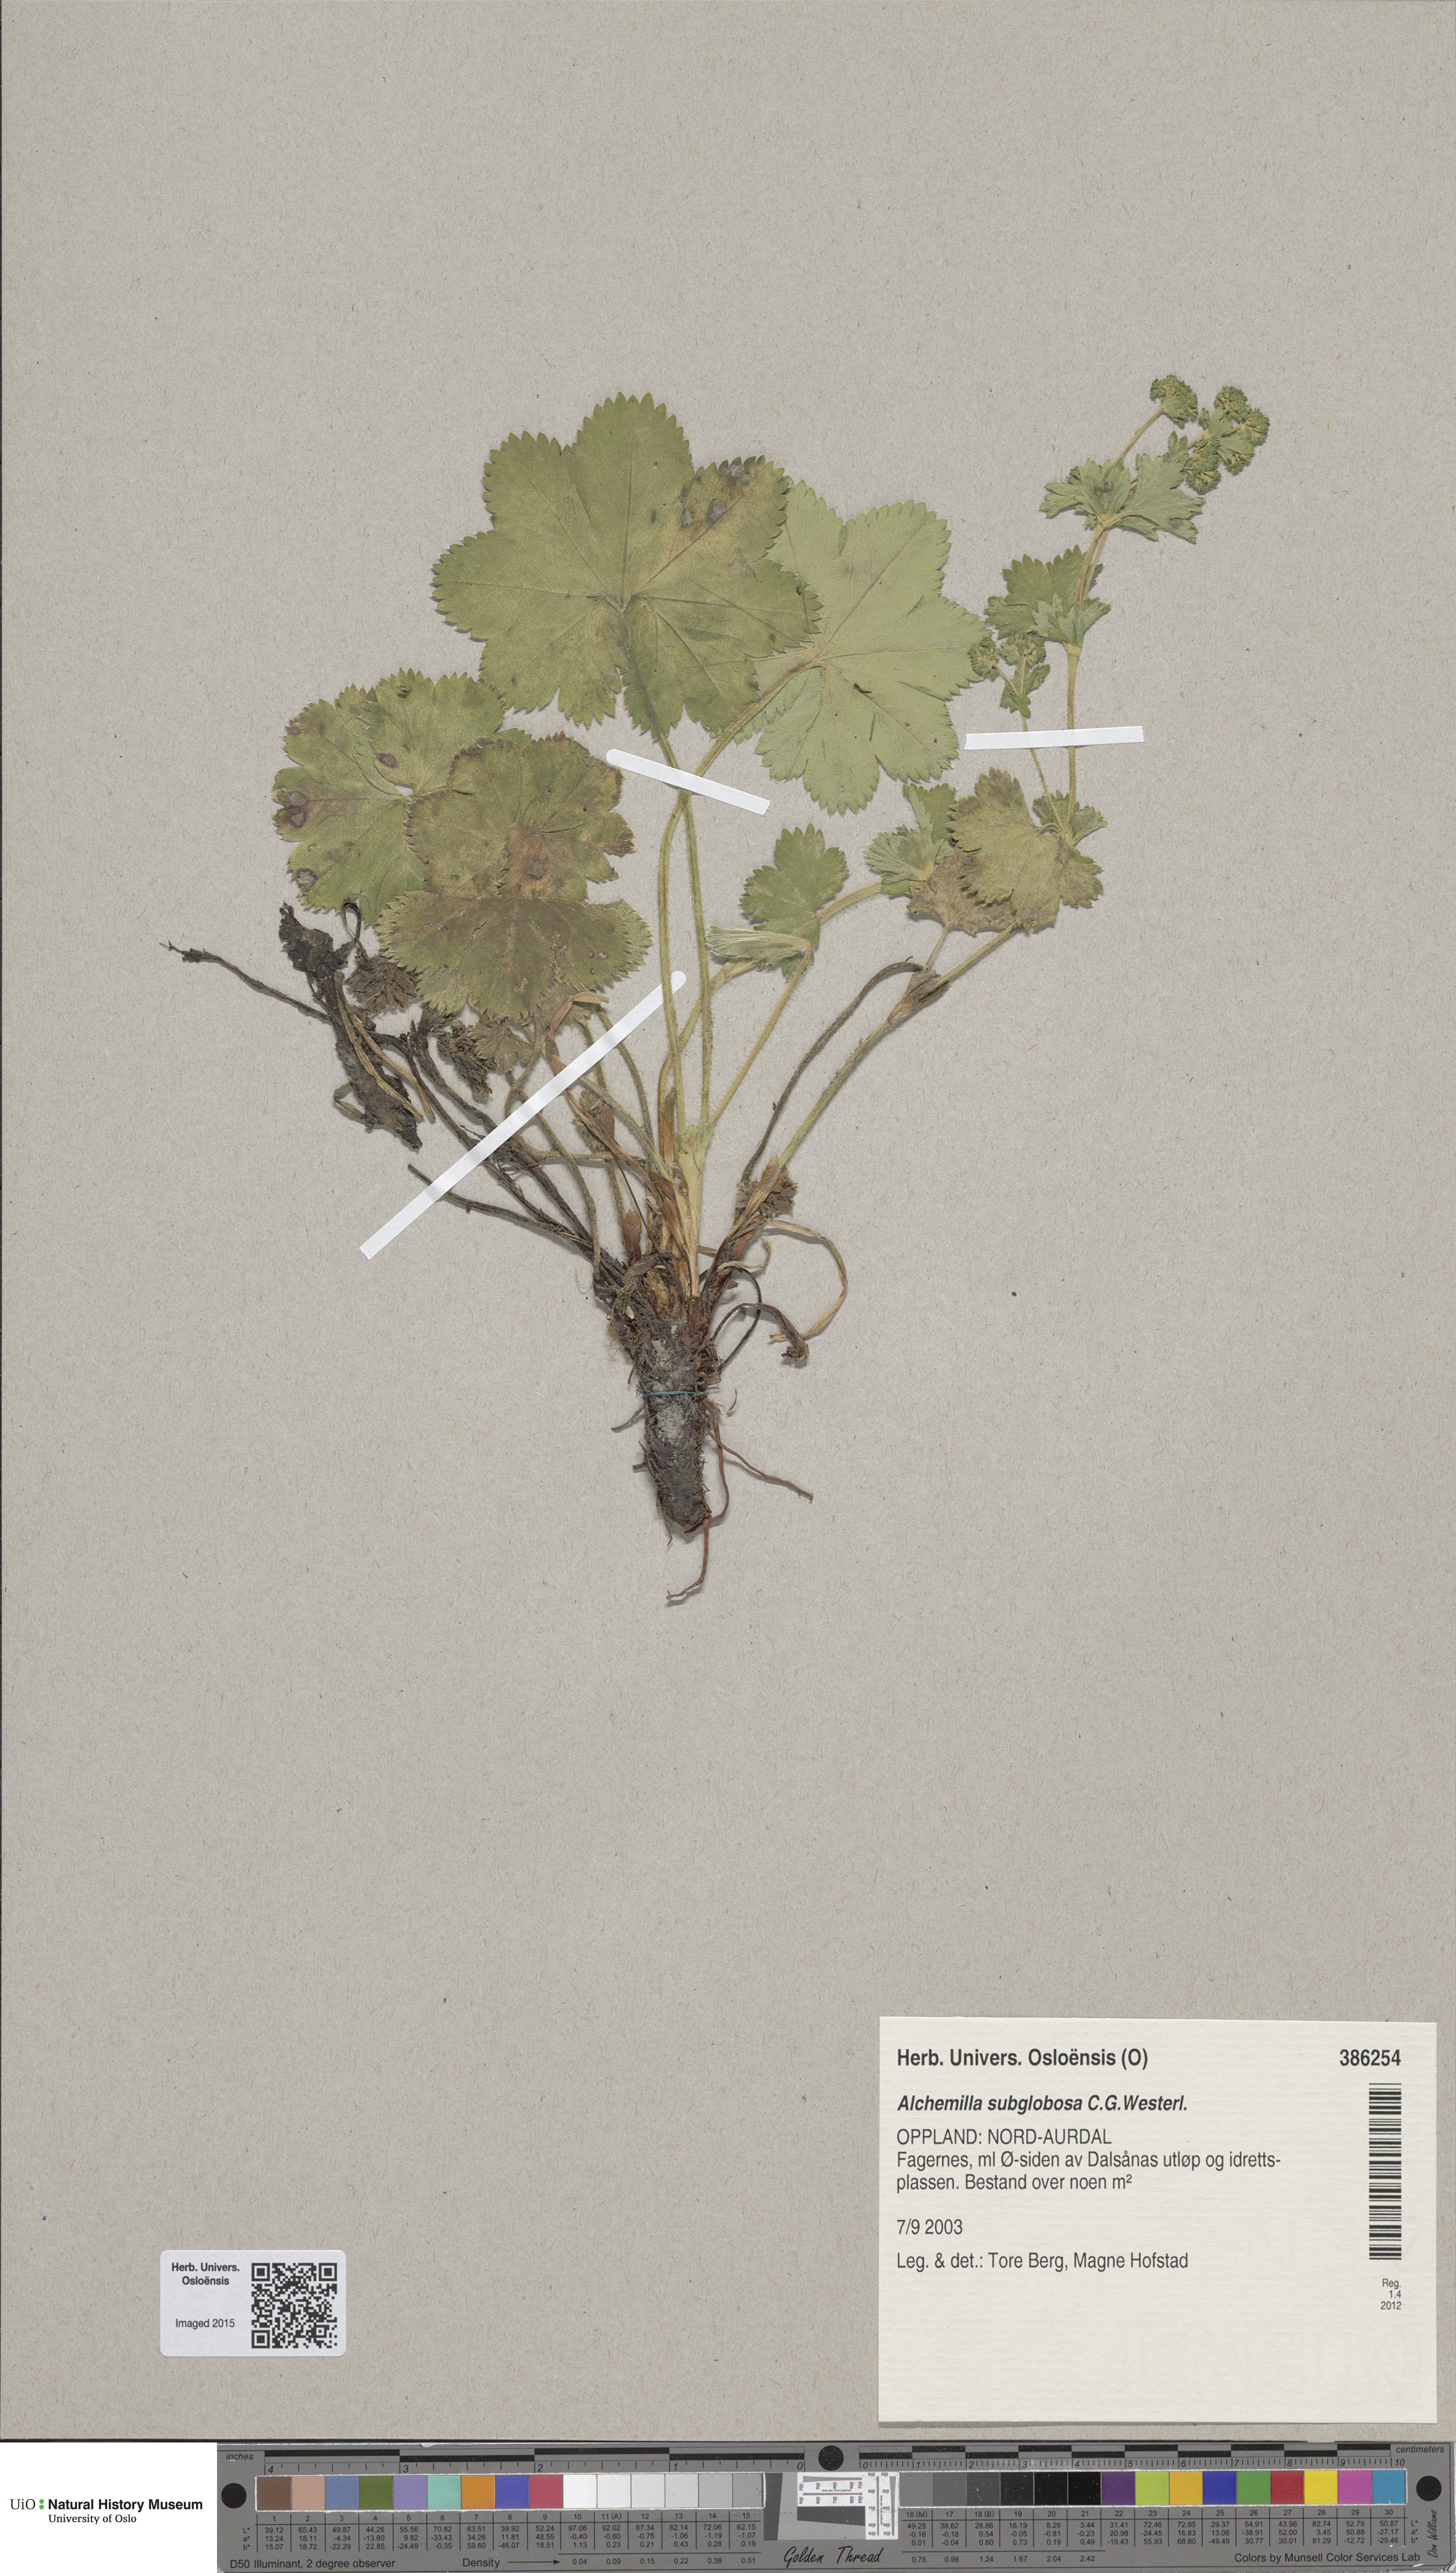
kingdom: Plantae
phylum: Tracheophyta
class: Magnoliopsida
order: Rosales
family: Rosaceae
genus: Alchemilla
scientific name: Alchemilla subglobosa
